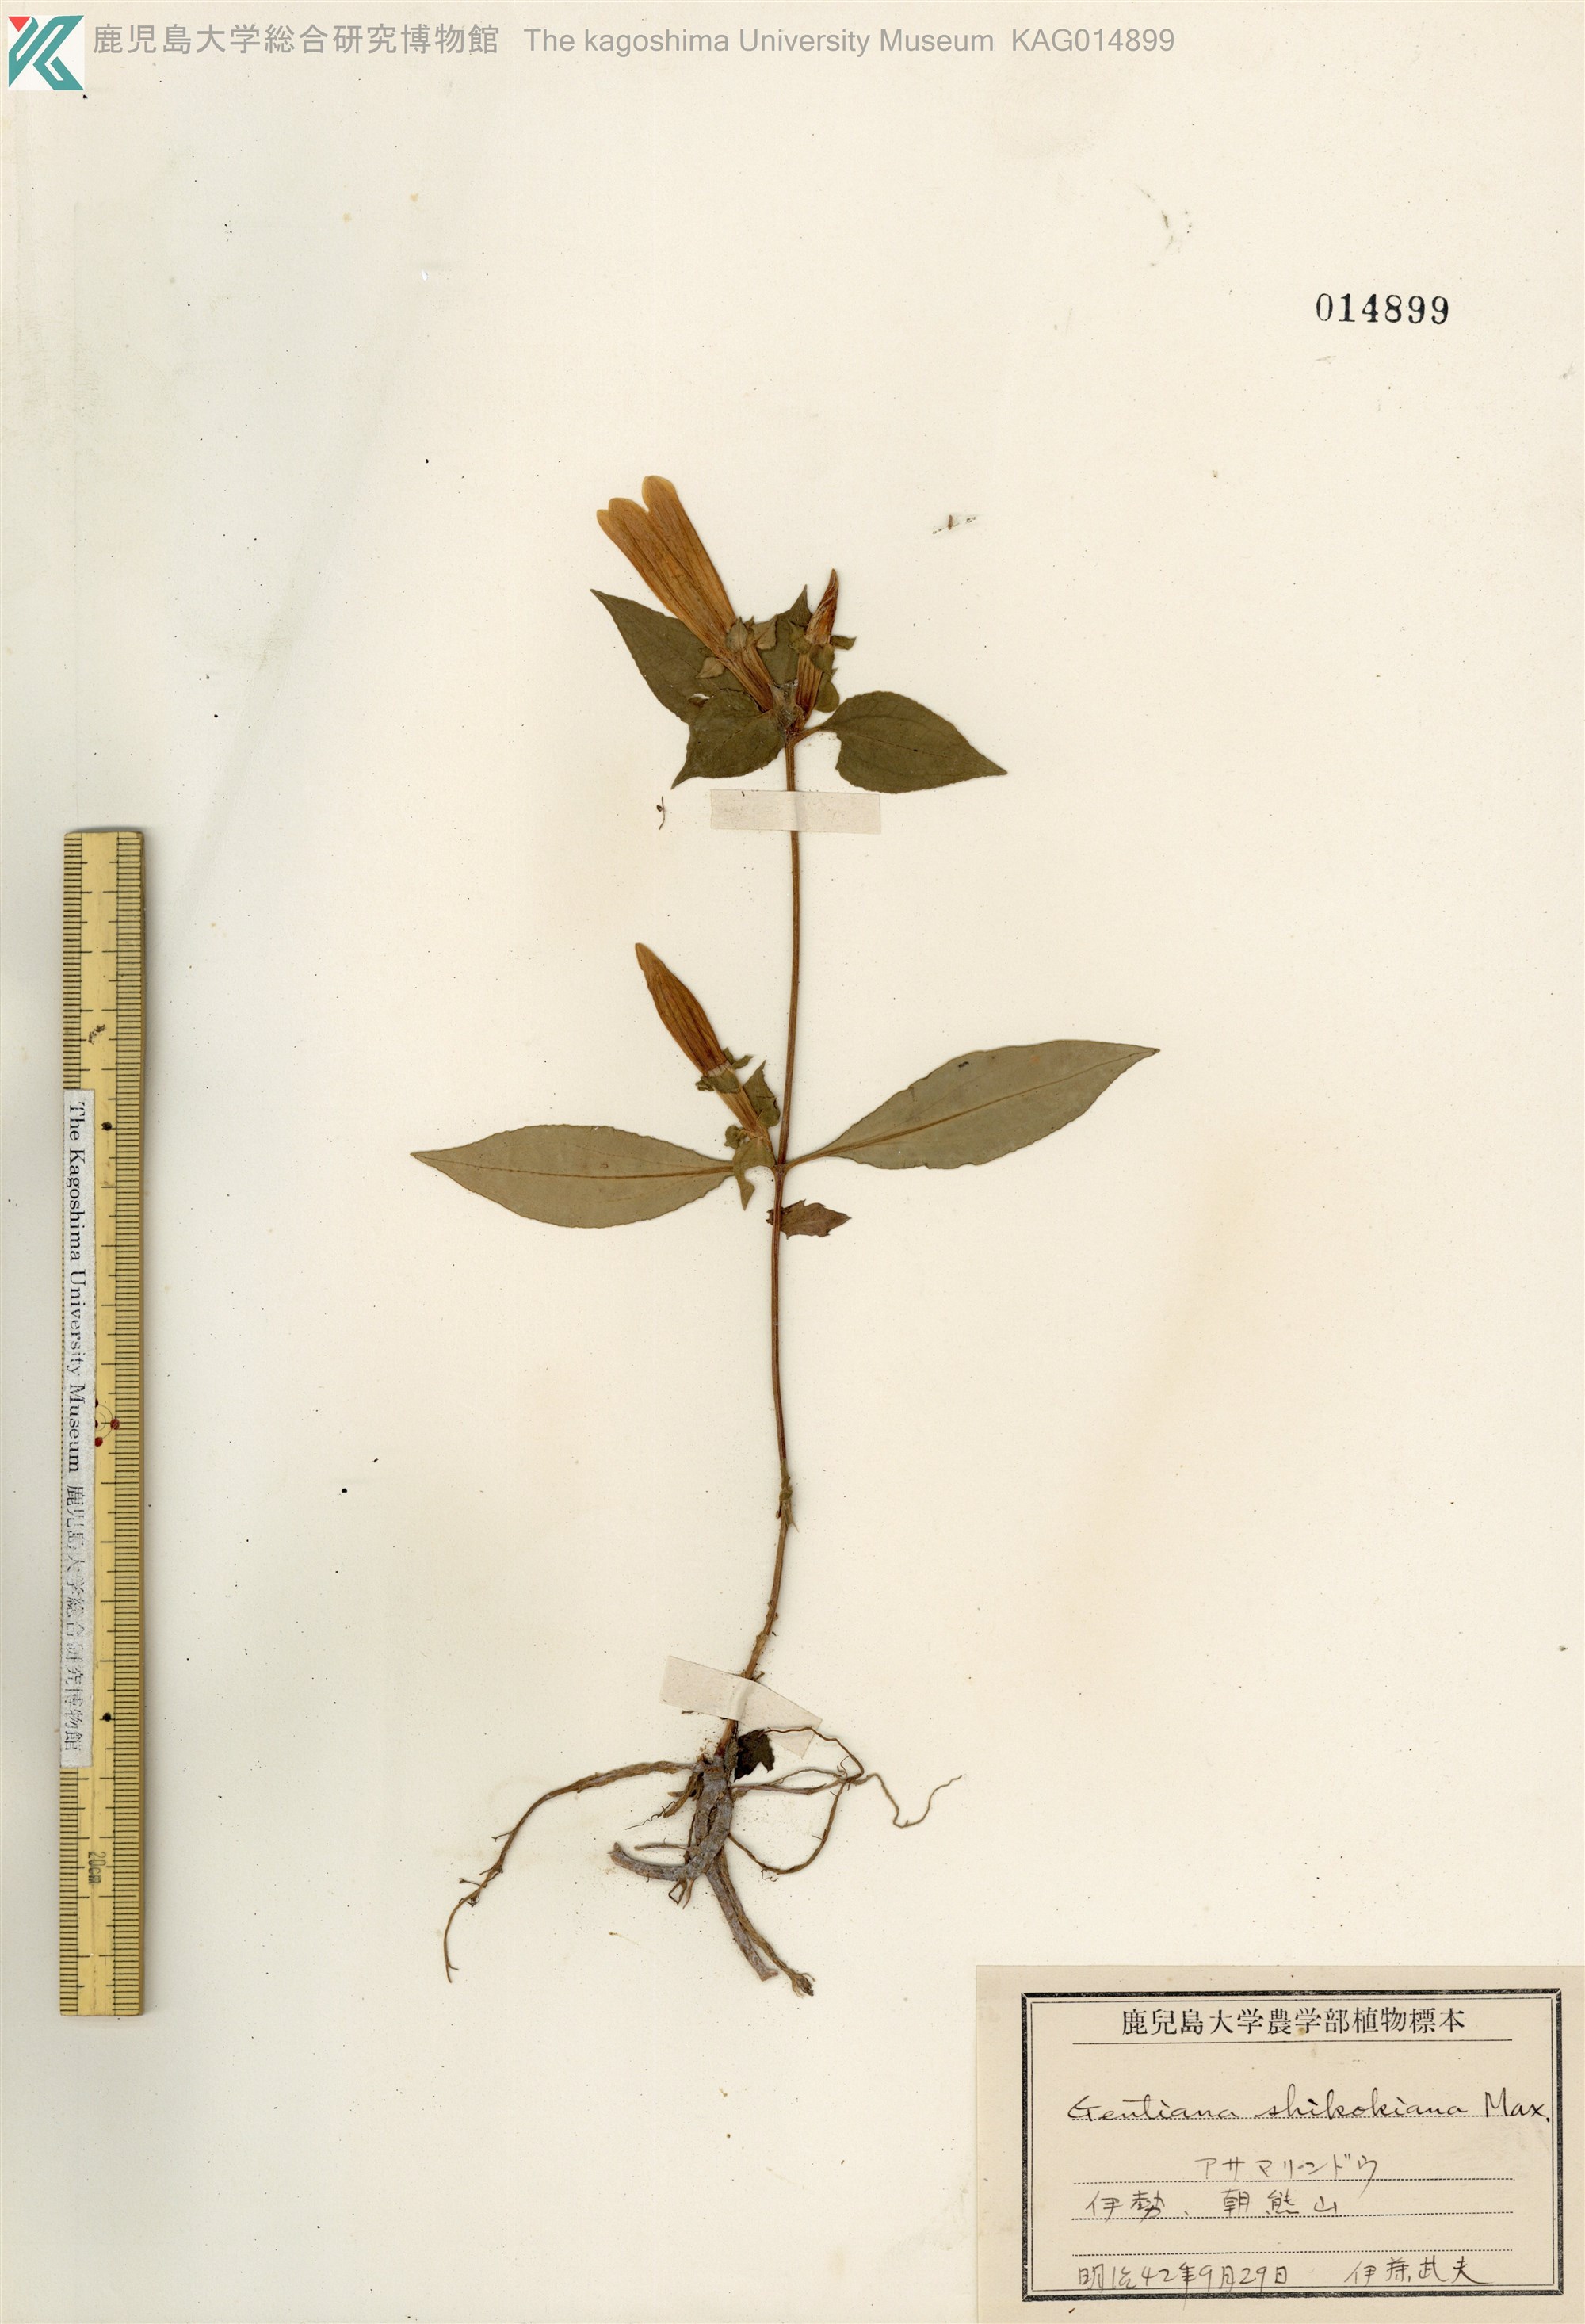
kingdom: Plantae
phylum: Tracheophyta
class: Magnoliopsida
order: Gentianales
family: Gentianaceae
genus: Gentiana
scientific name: Gentiana sikokiana
